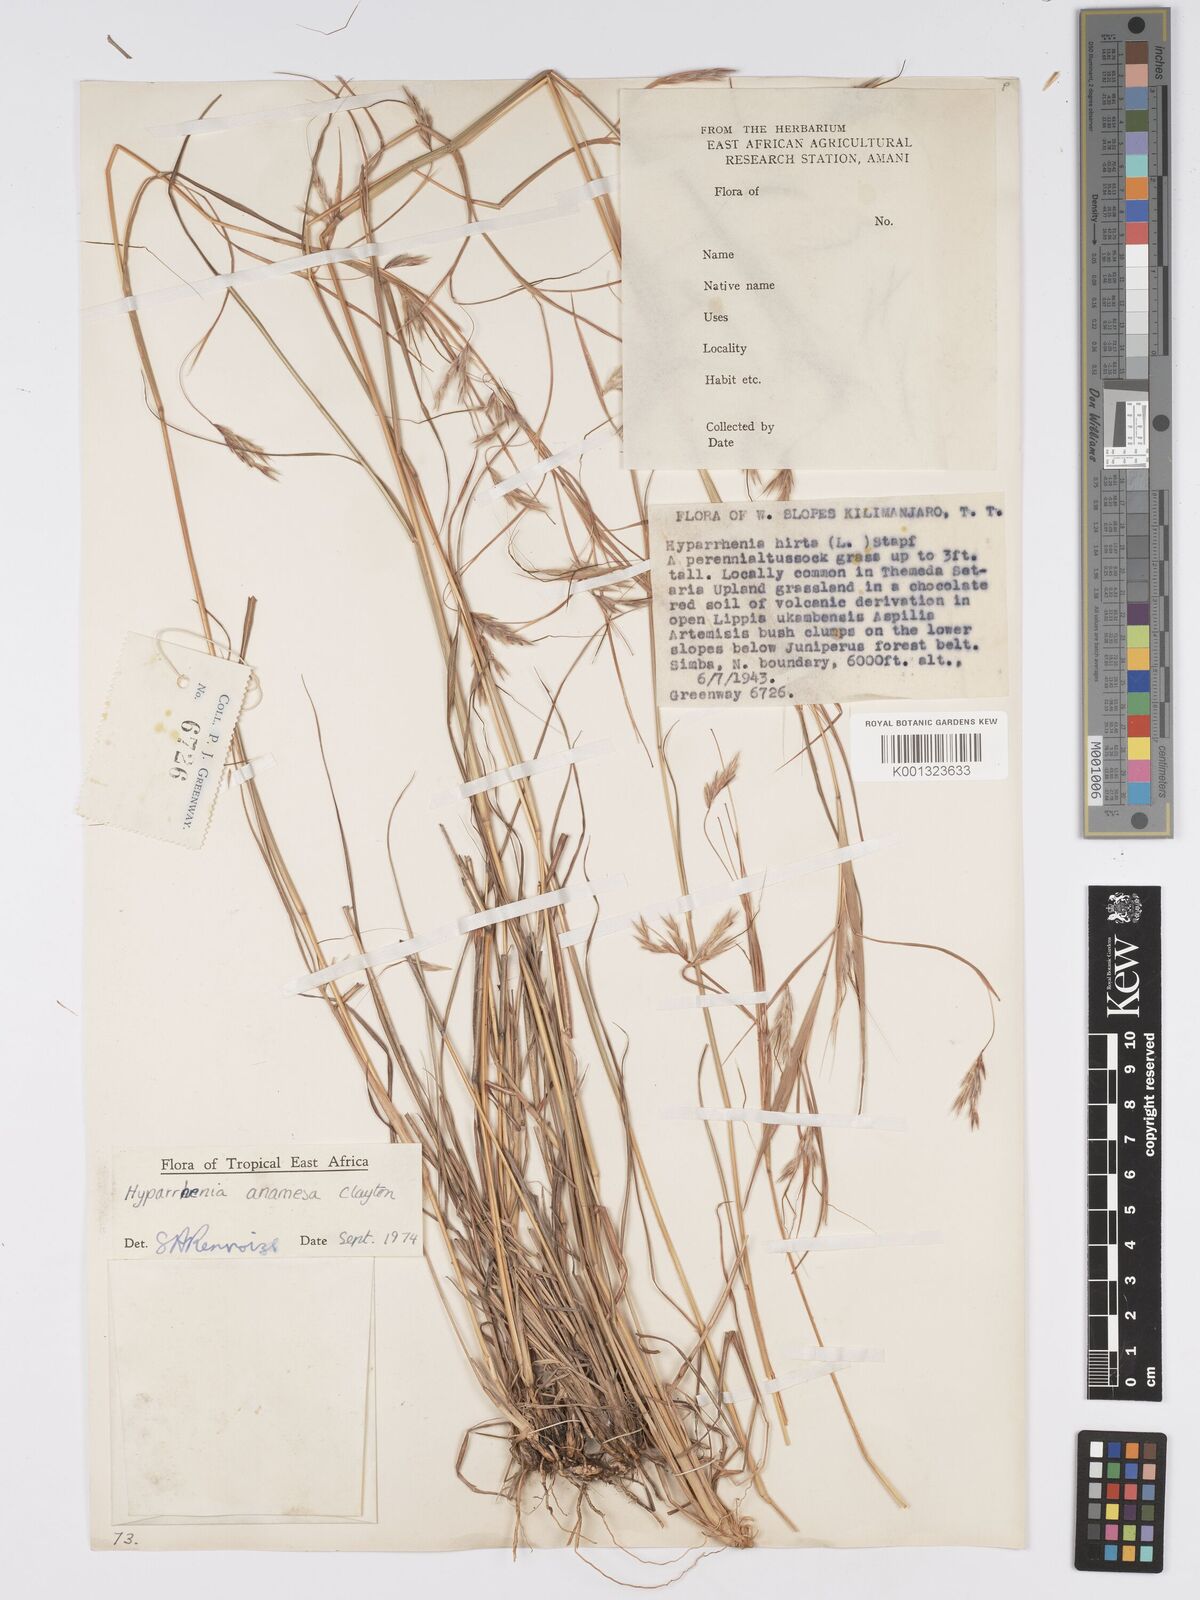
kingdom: Plantae
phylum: Tracheophyta
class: Liliopsida
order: Poales
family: Poaceae
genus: Hyparrhenia
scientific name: Hyparrhenia anamesa
